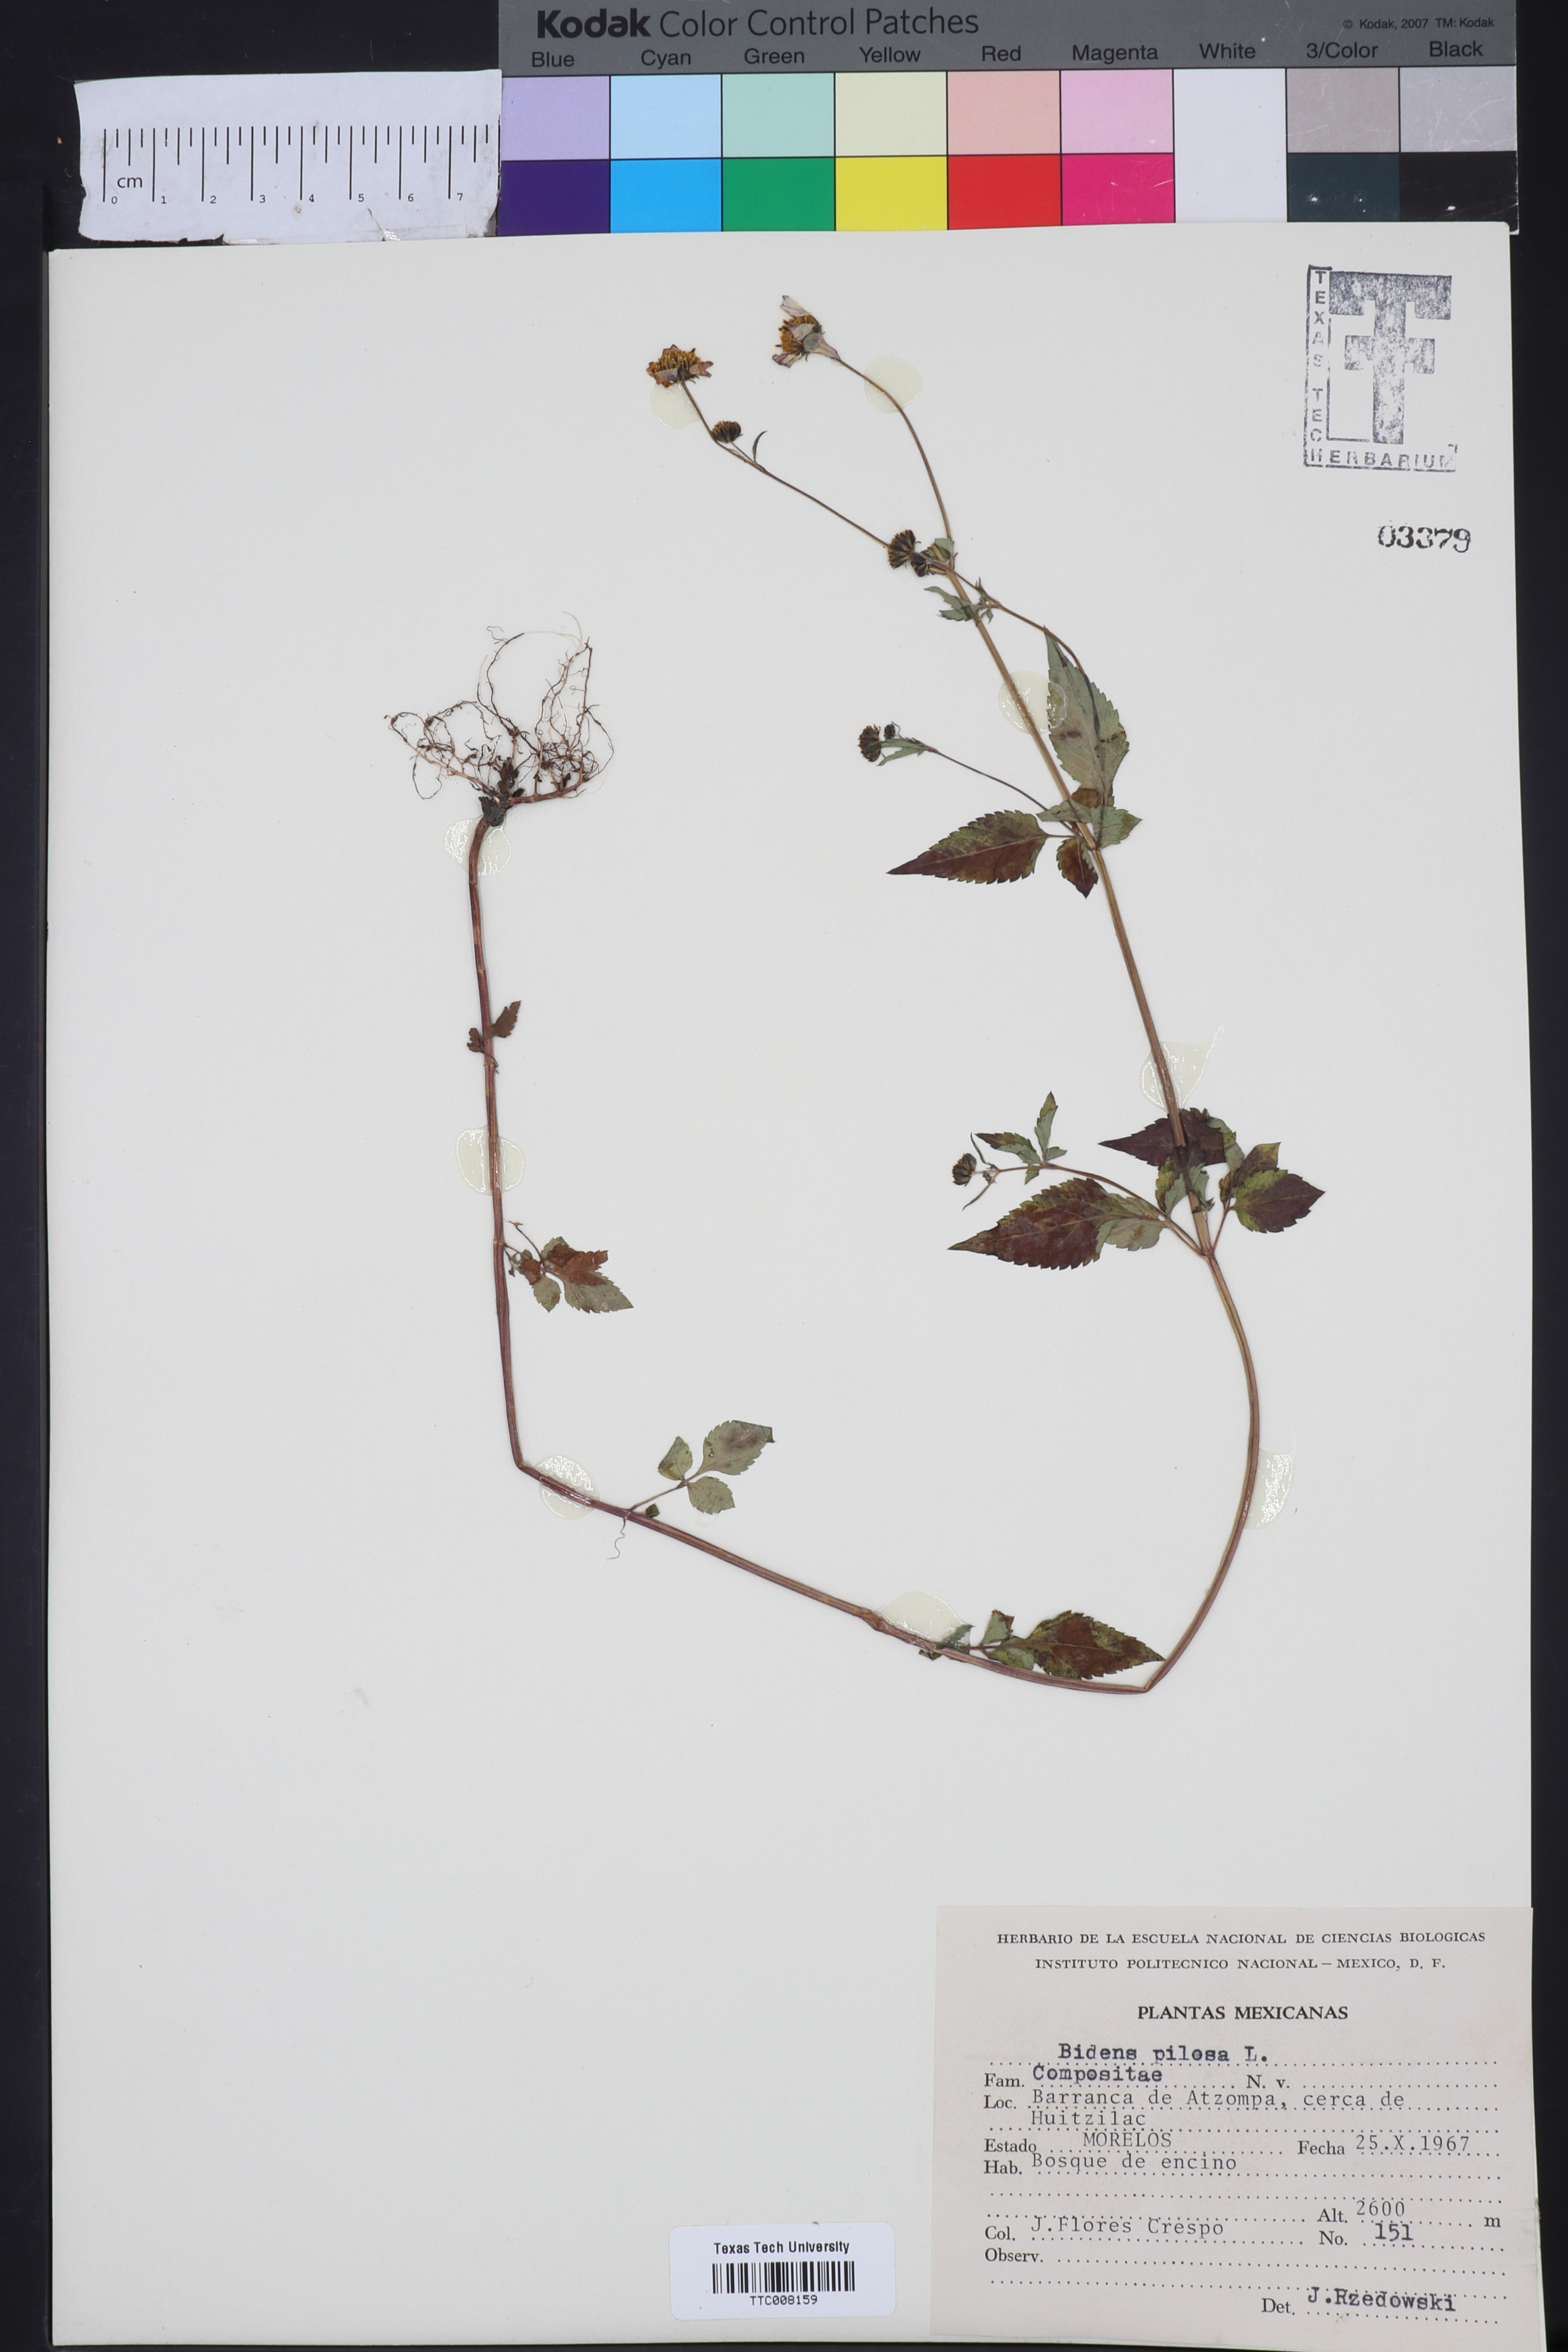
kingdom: Plantae
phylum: Tracheophyta
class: Magnoliopsida
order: Asterales
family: Asteraceae
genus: Bidens
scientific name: Bidens pilosa
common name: Black-jack
